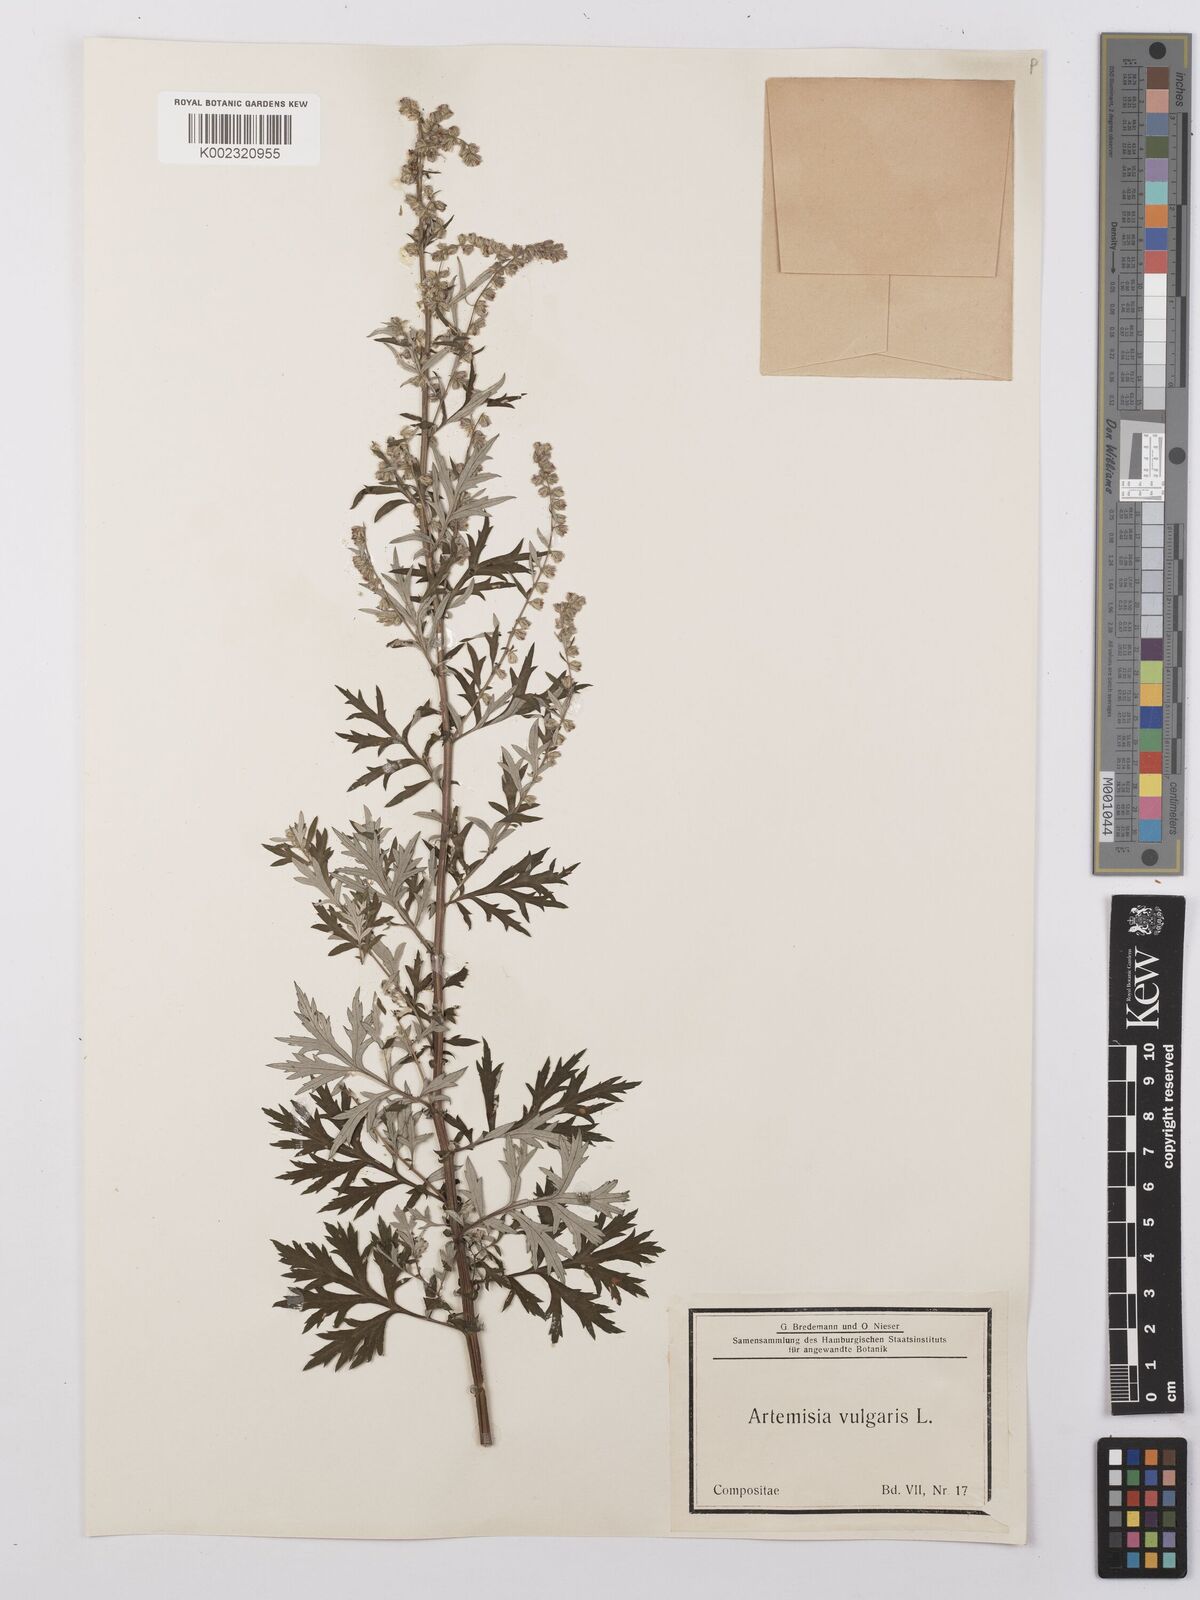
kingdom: Plantae
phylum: Tracheophyta
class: Magnoliopsida
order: Asterales
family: Asteraceae
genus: Artemisia
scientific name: Artemisia vulgaris
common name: Mugwort
